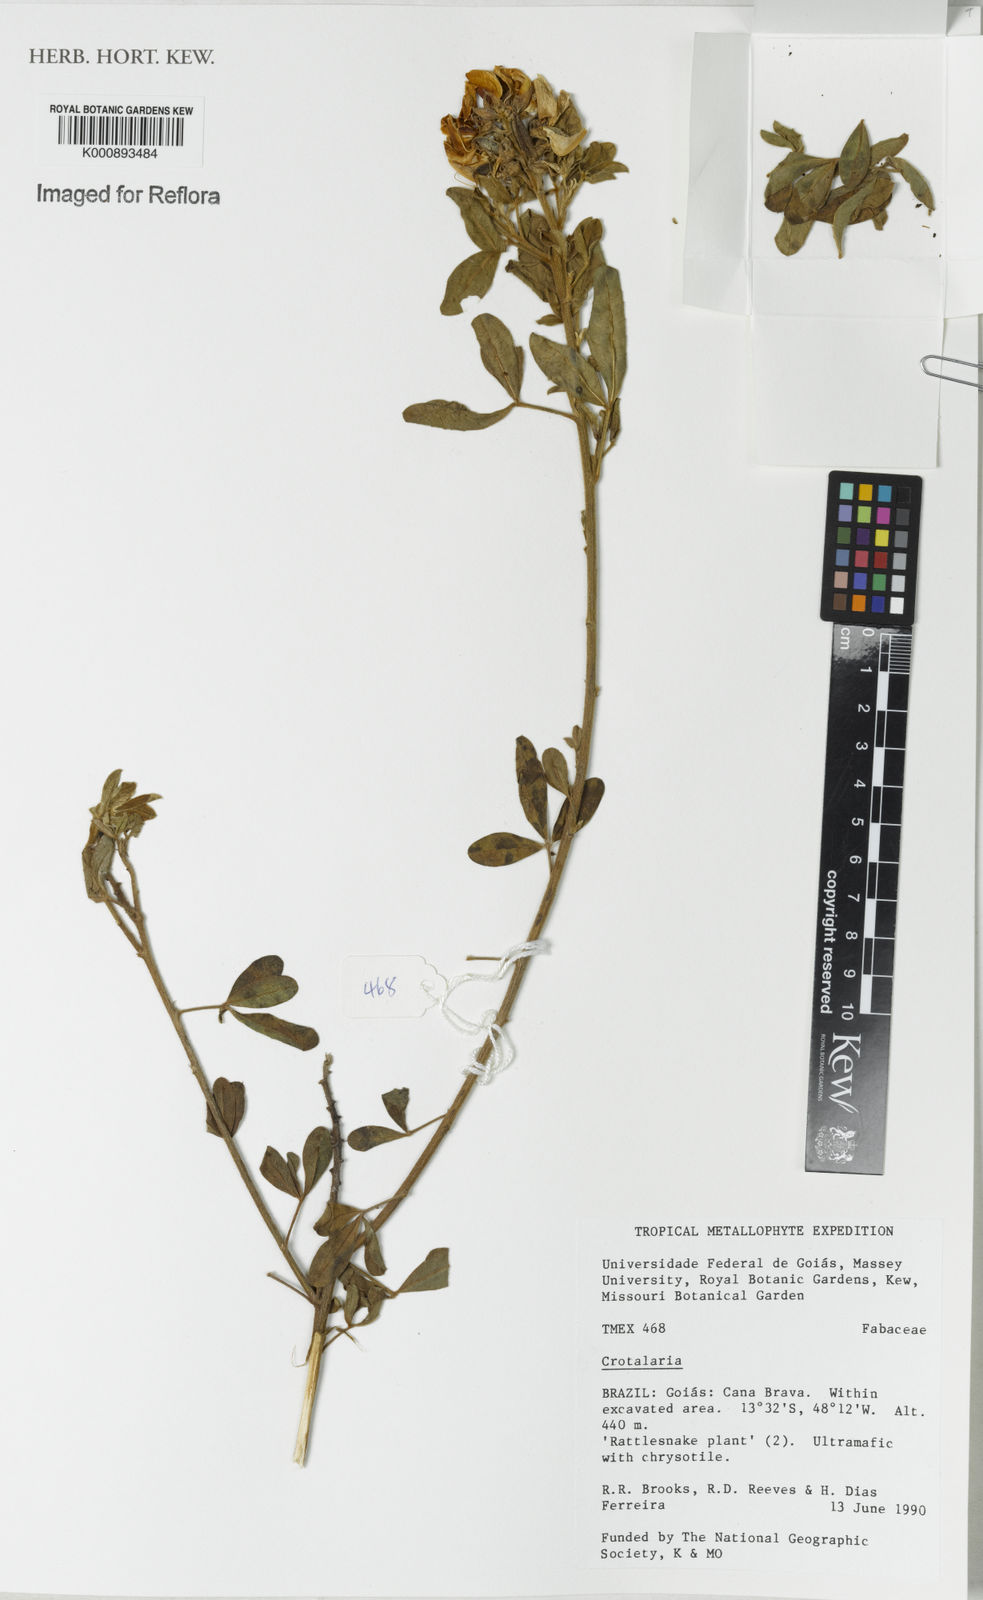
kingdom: Plantae
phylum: Tracheophyta
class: Magnoliopsida
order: Fabales
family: Fabaceae
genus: Crotalaria
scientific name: Crotalaria maypurensis
